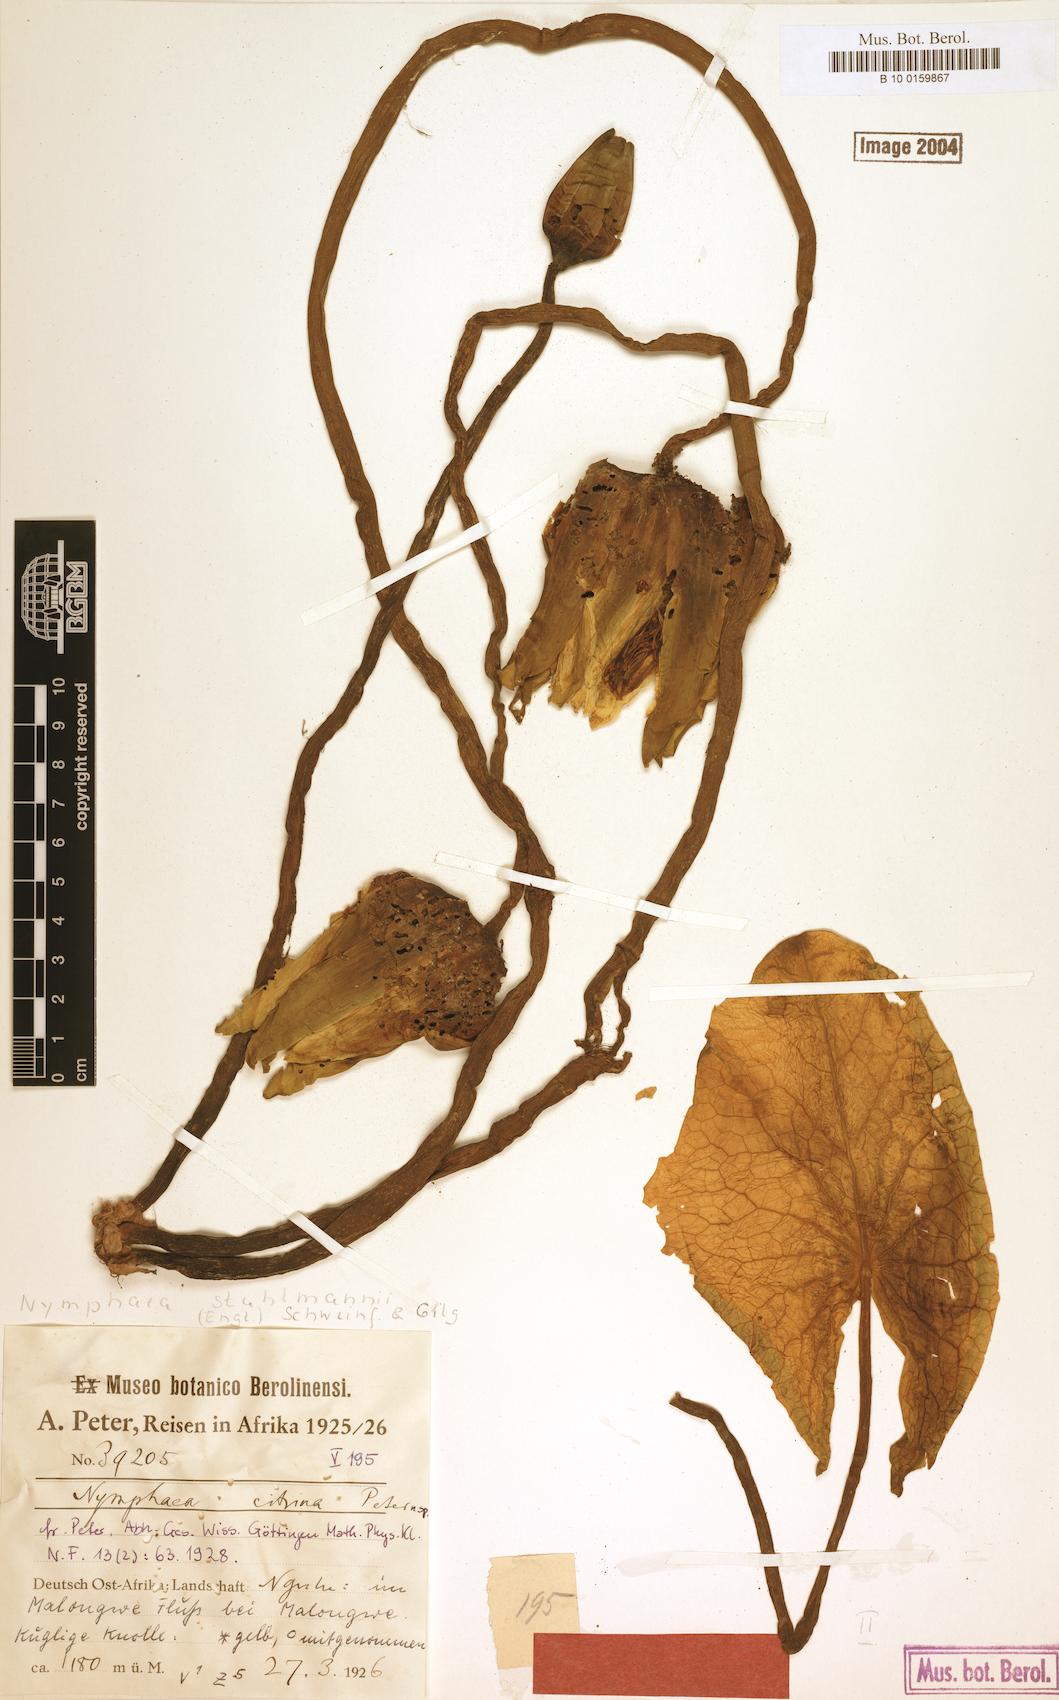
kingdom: Plantae
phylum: Tracheophyta
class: Magnoliopsida
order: Nymphaeales
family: Nymphaeaceae
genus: Nymphaea
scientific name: Nymphaea stuhlmannii
